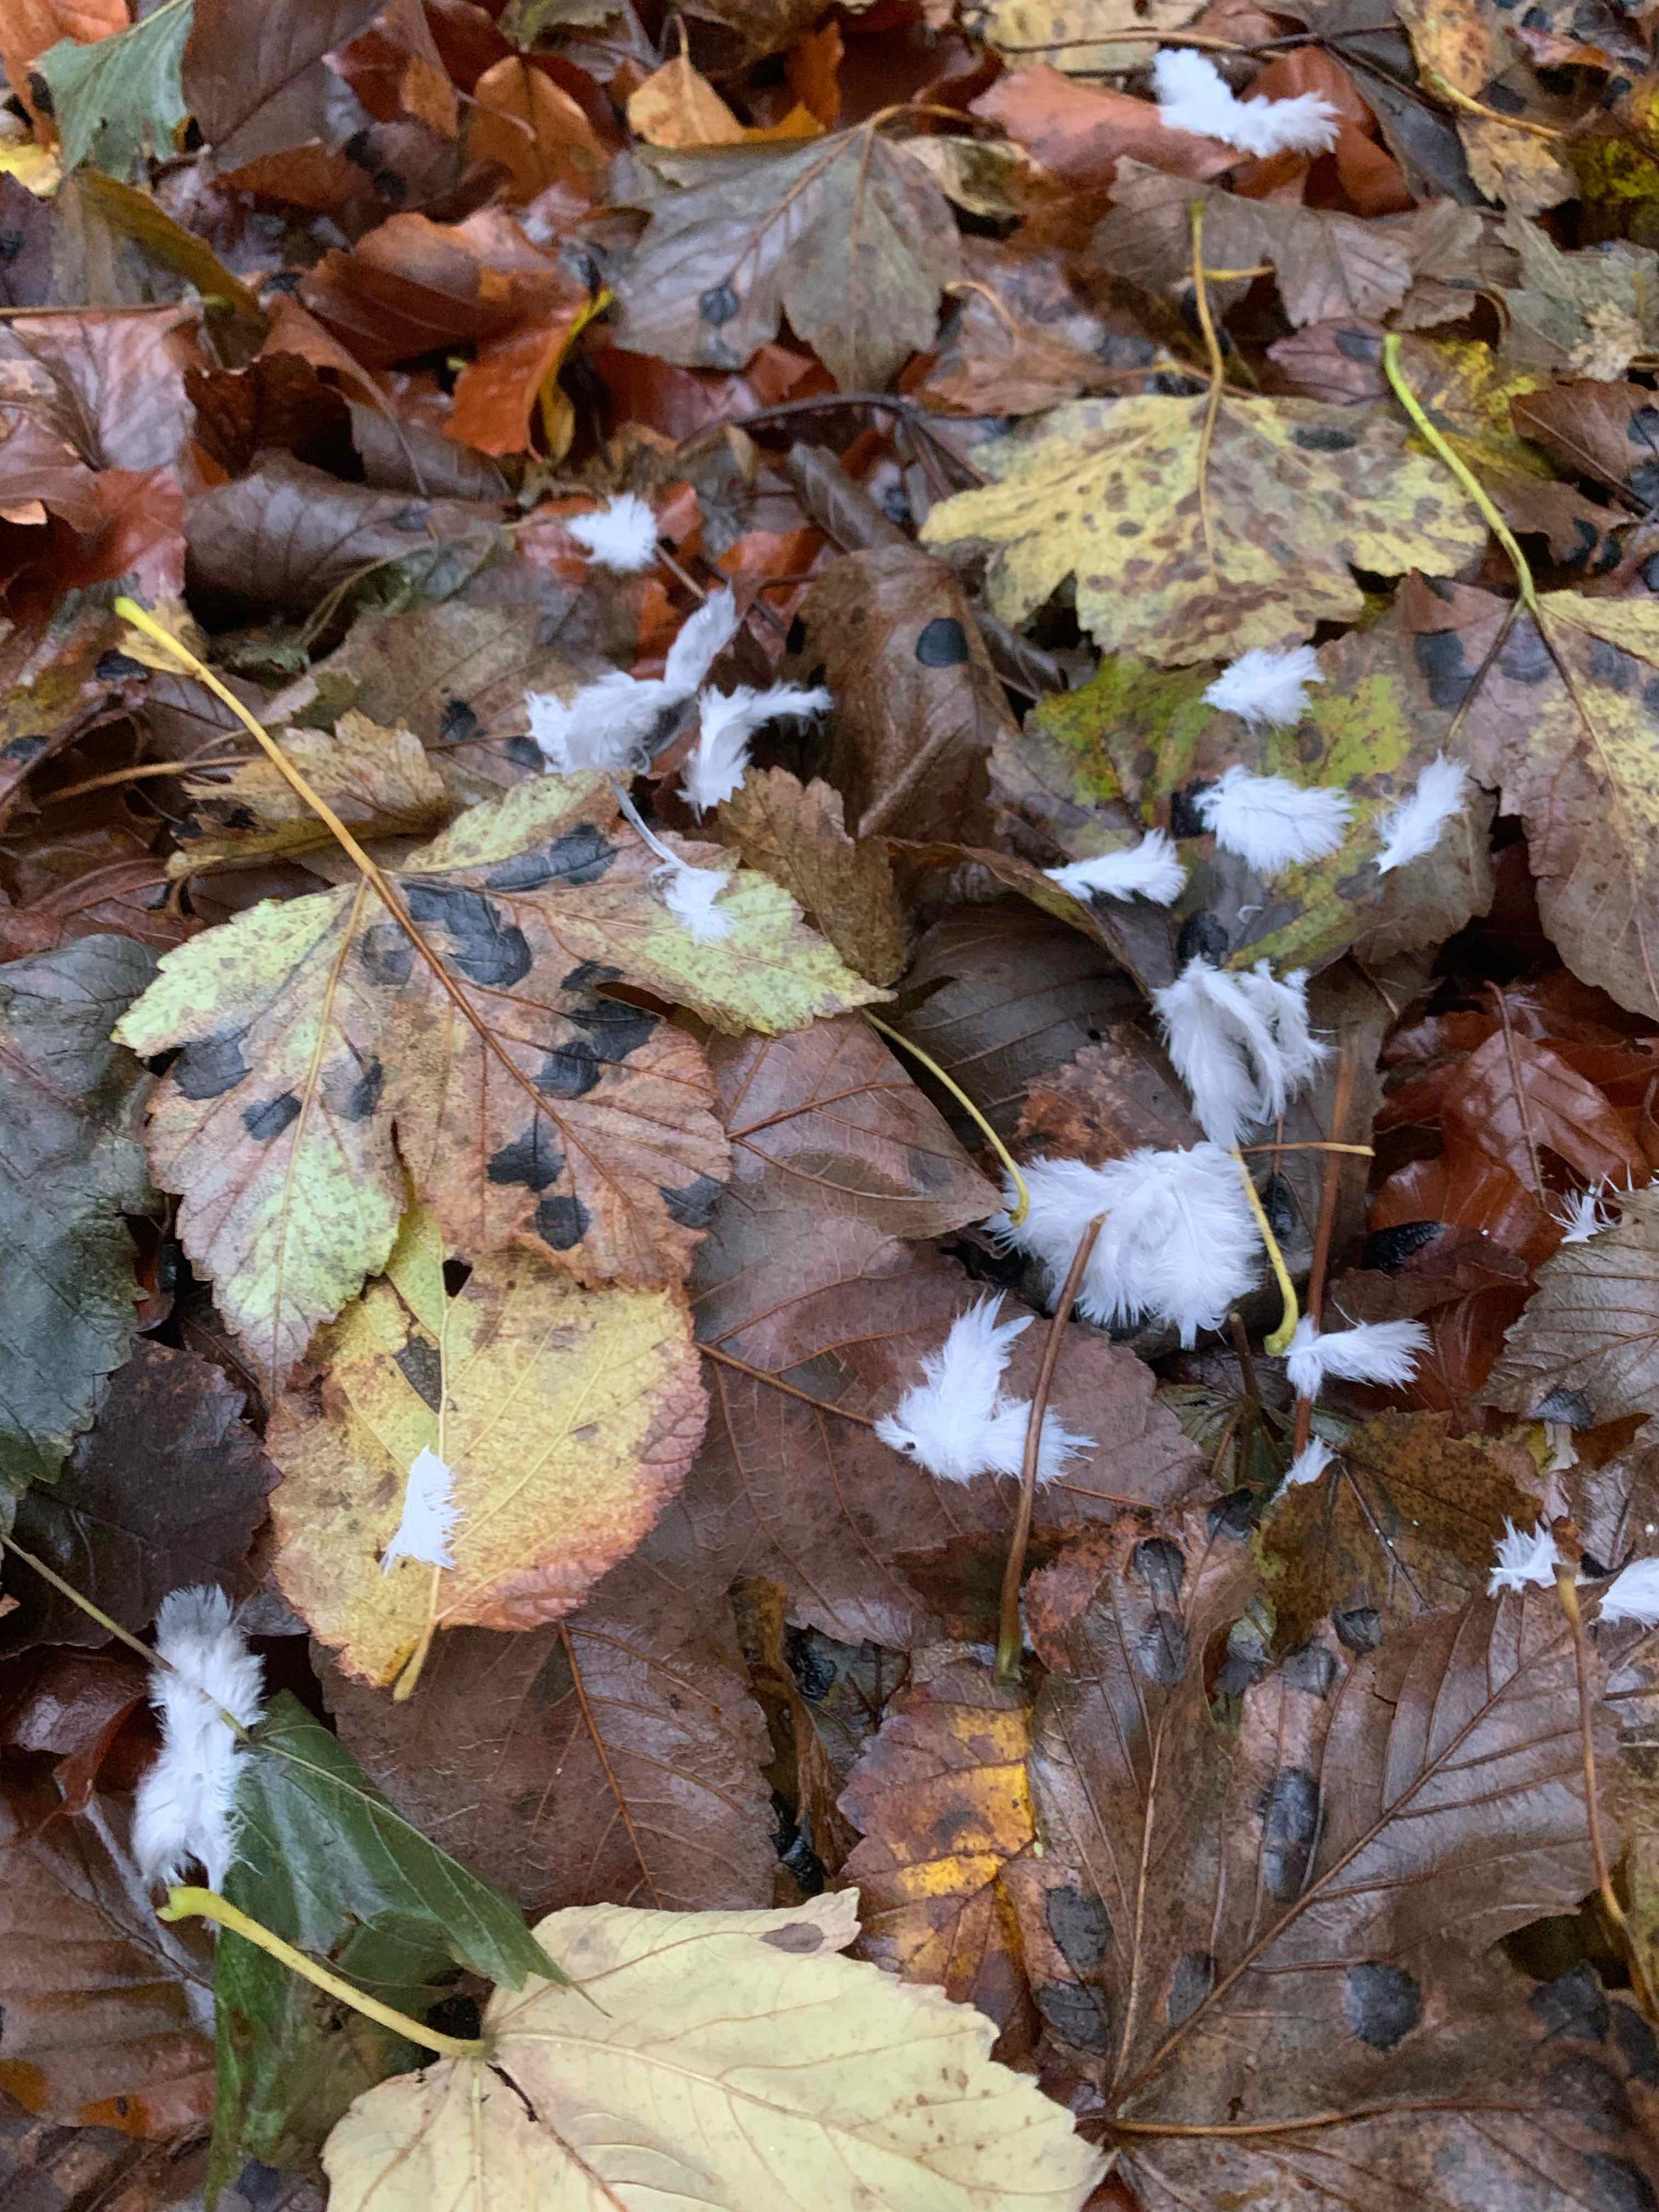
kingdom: Fungi
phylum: Ascomycota
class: Leotiomycetes
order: Rhytismatales
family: Rhytismataceae
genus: Rhytisma
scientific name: Rhytisma acerinum
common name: ahorn-rynkeplet
